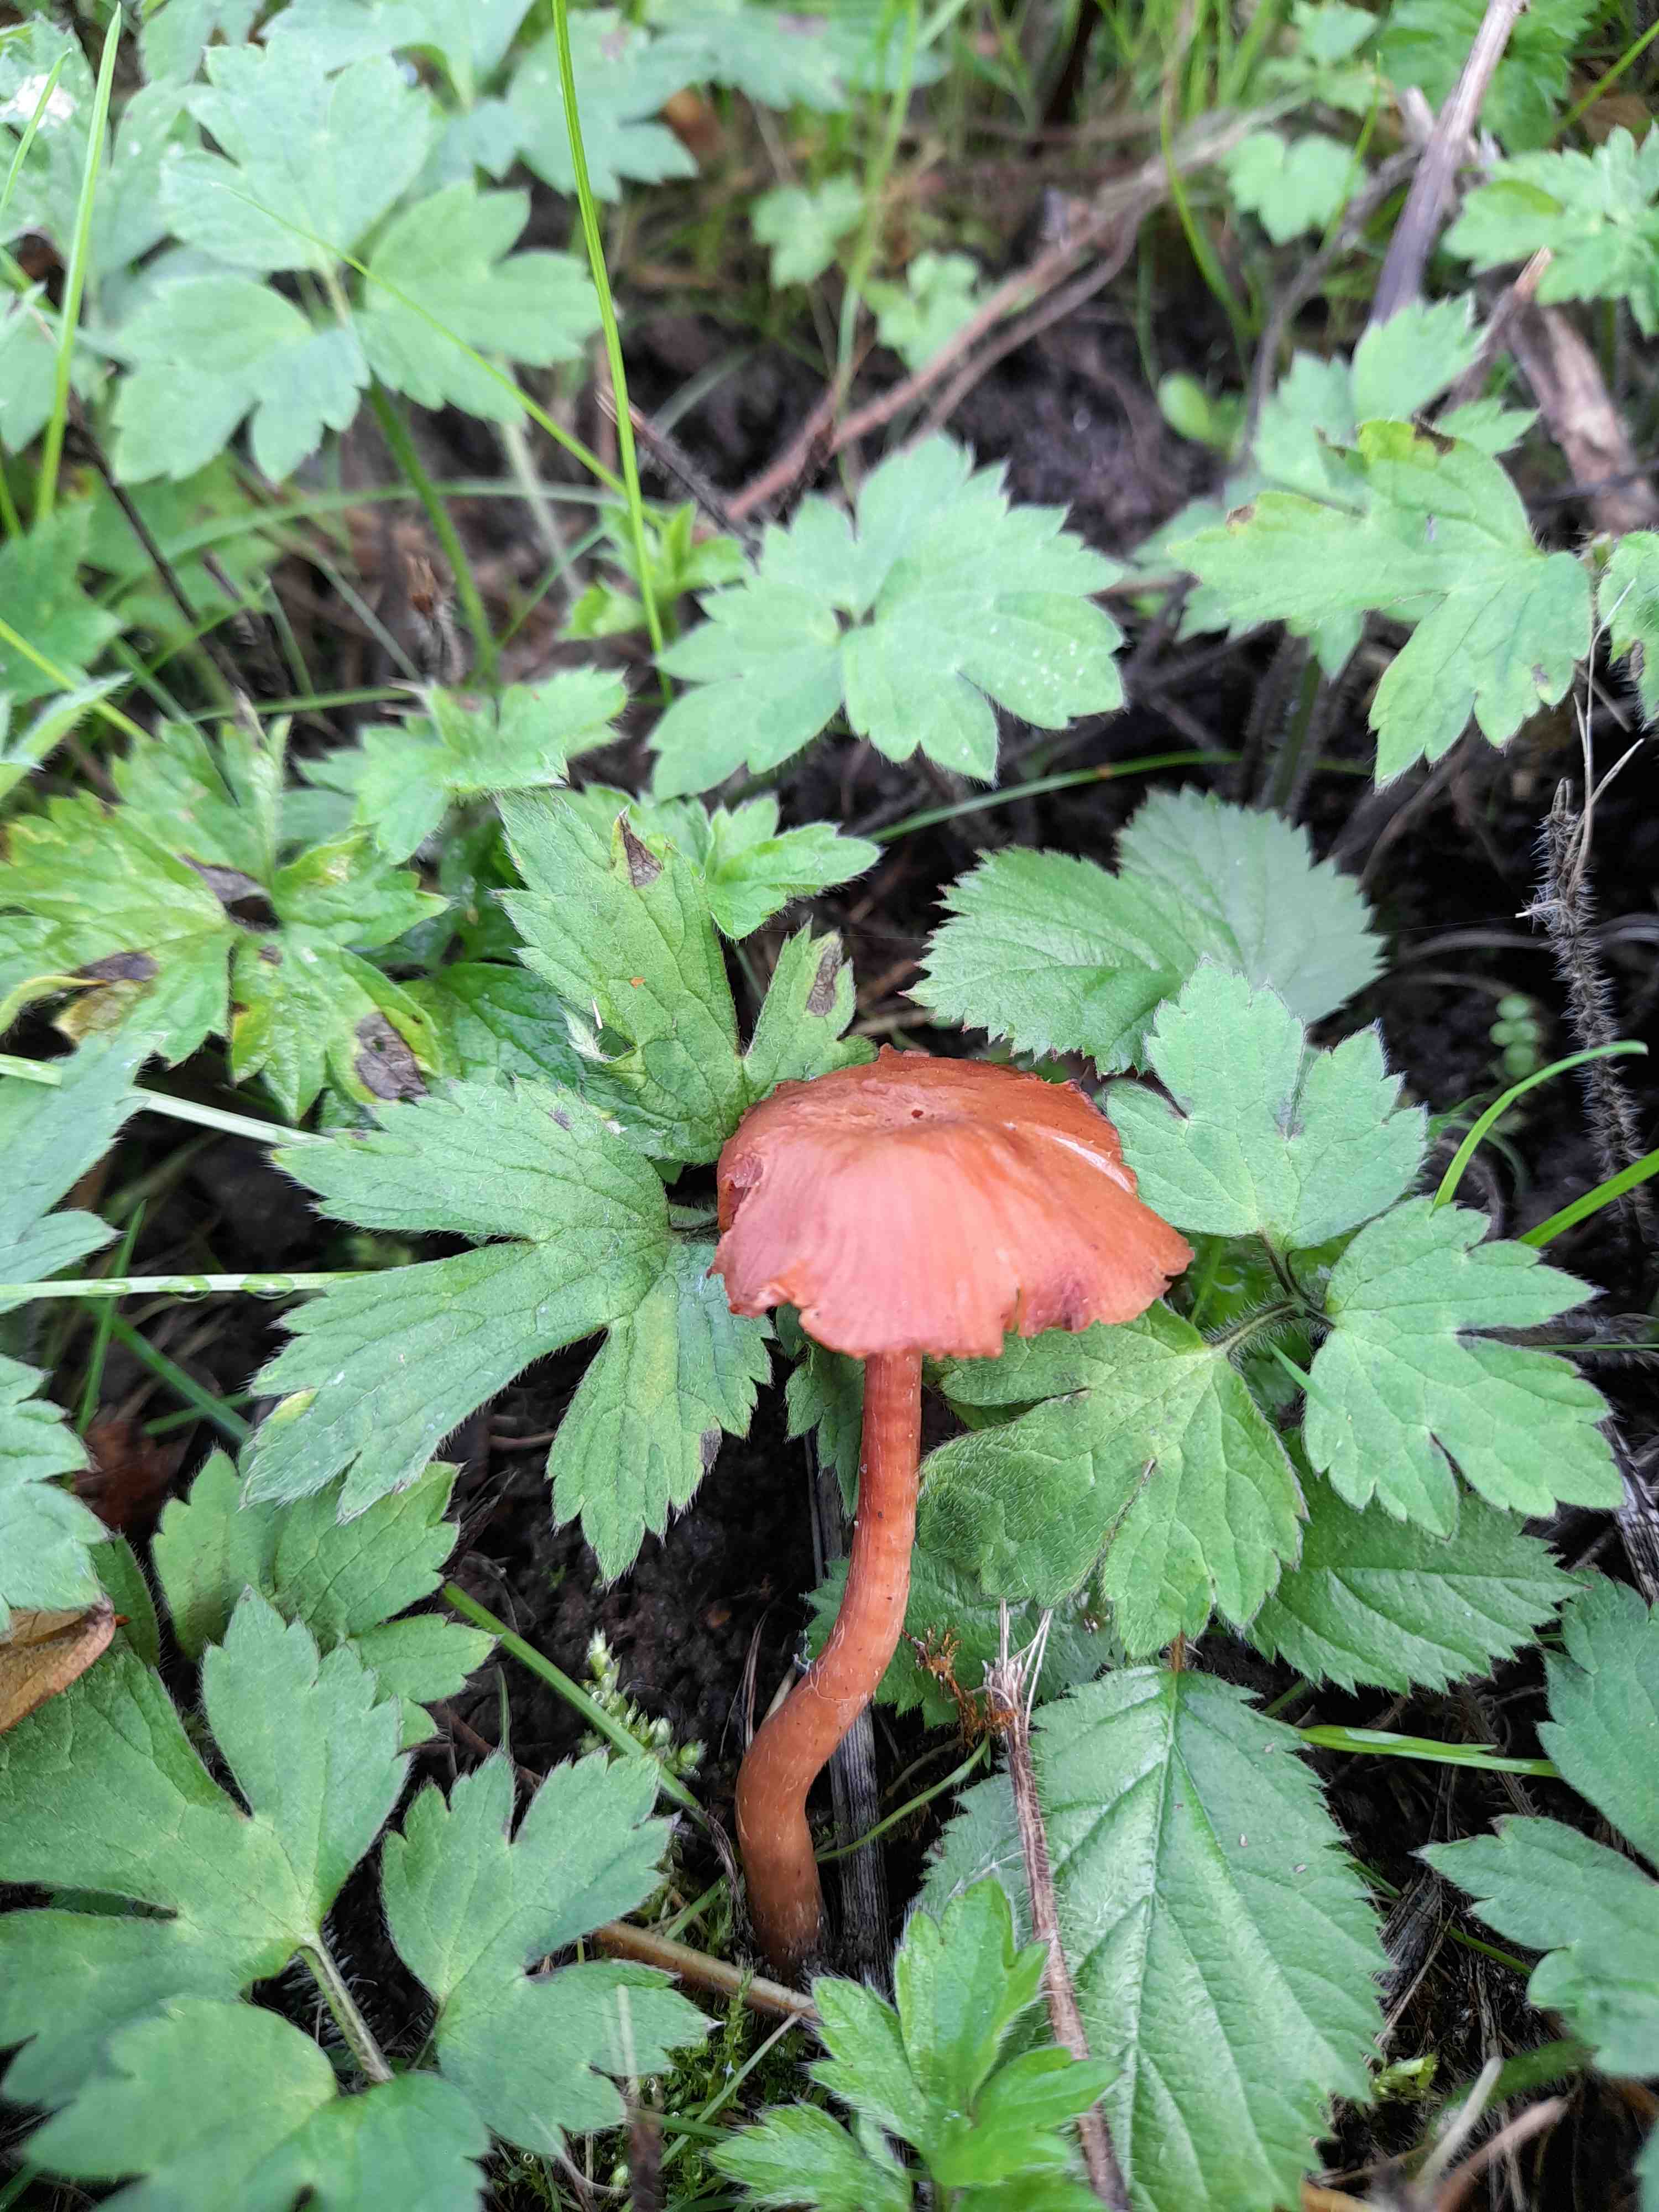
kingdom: Fungi
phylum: Basidiomycota
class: Agaricomycetes
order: Agaricales
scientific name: Agaricales
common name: champignonordenen
